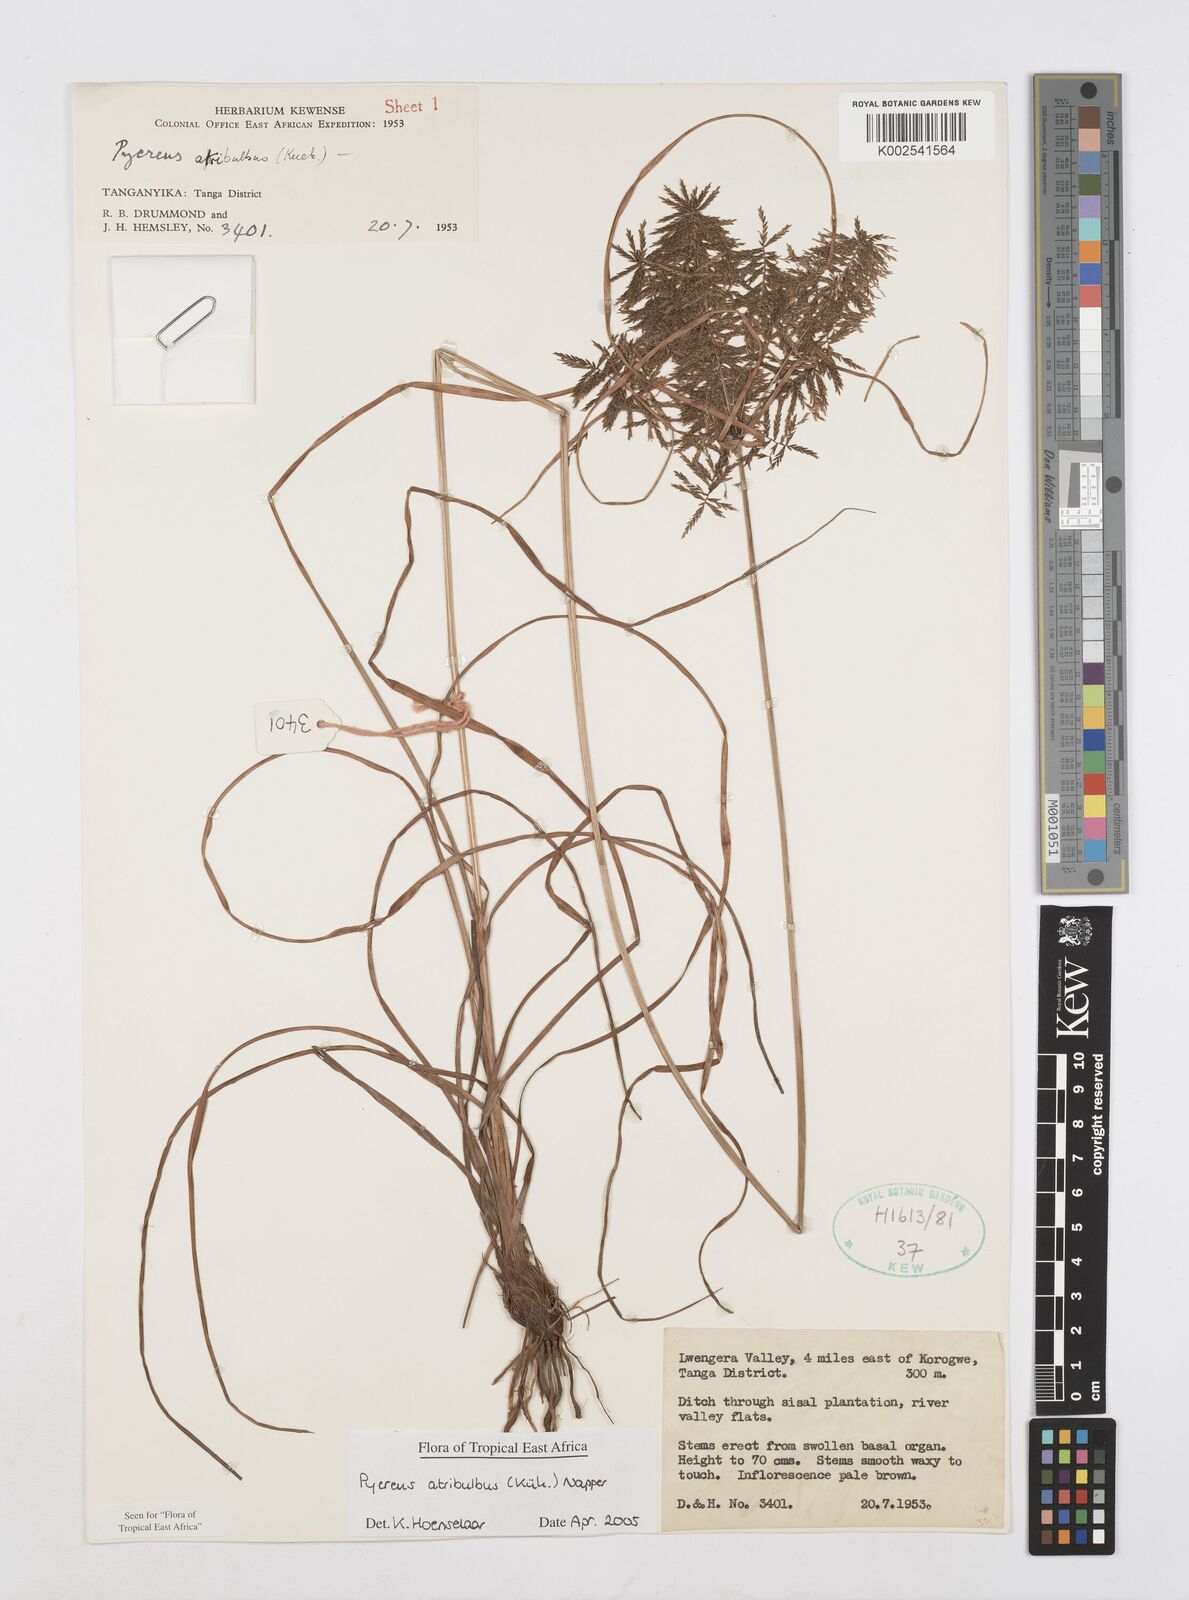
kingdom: Plantae
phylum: Tracheophyta
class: Liliopsida
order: Poales
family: Cyperaceae
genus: Cyperus
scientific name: Cyperus intactus
